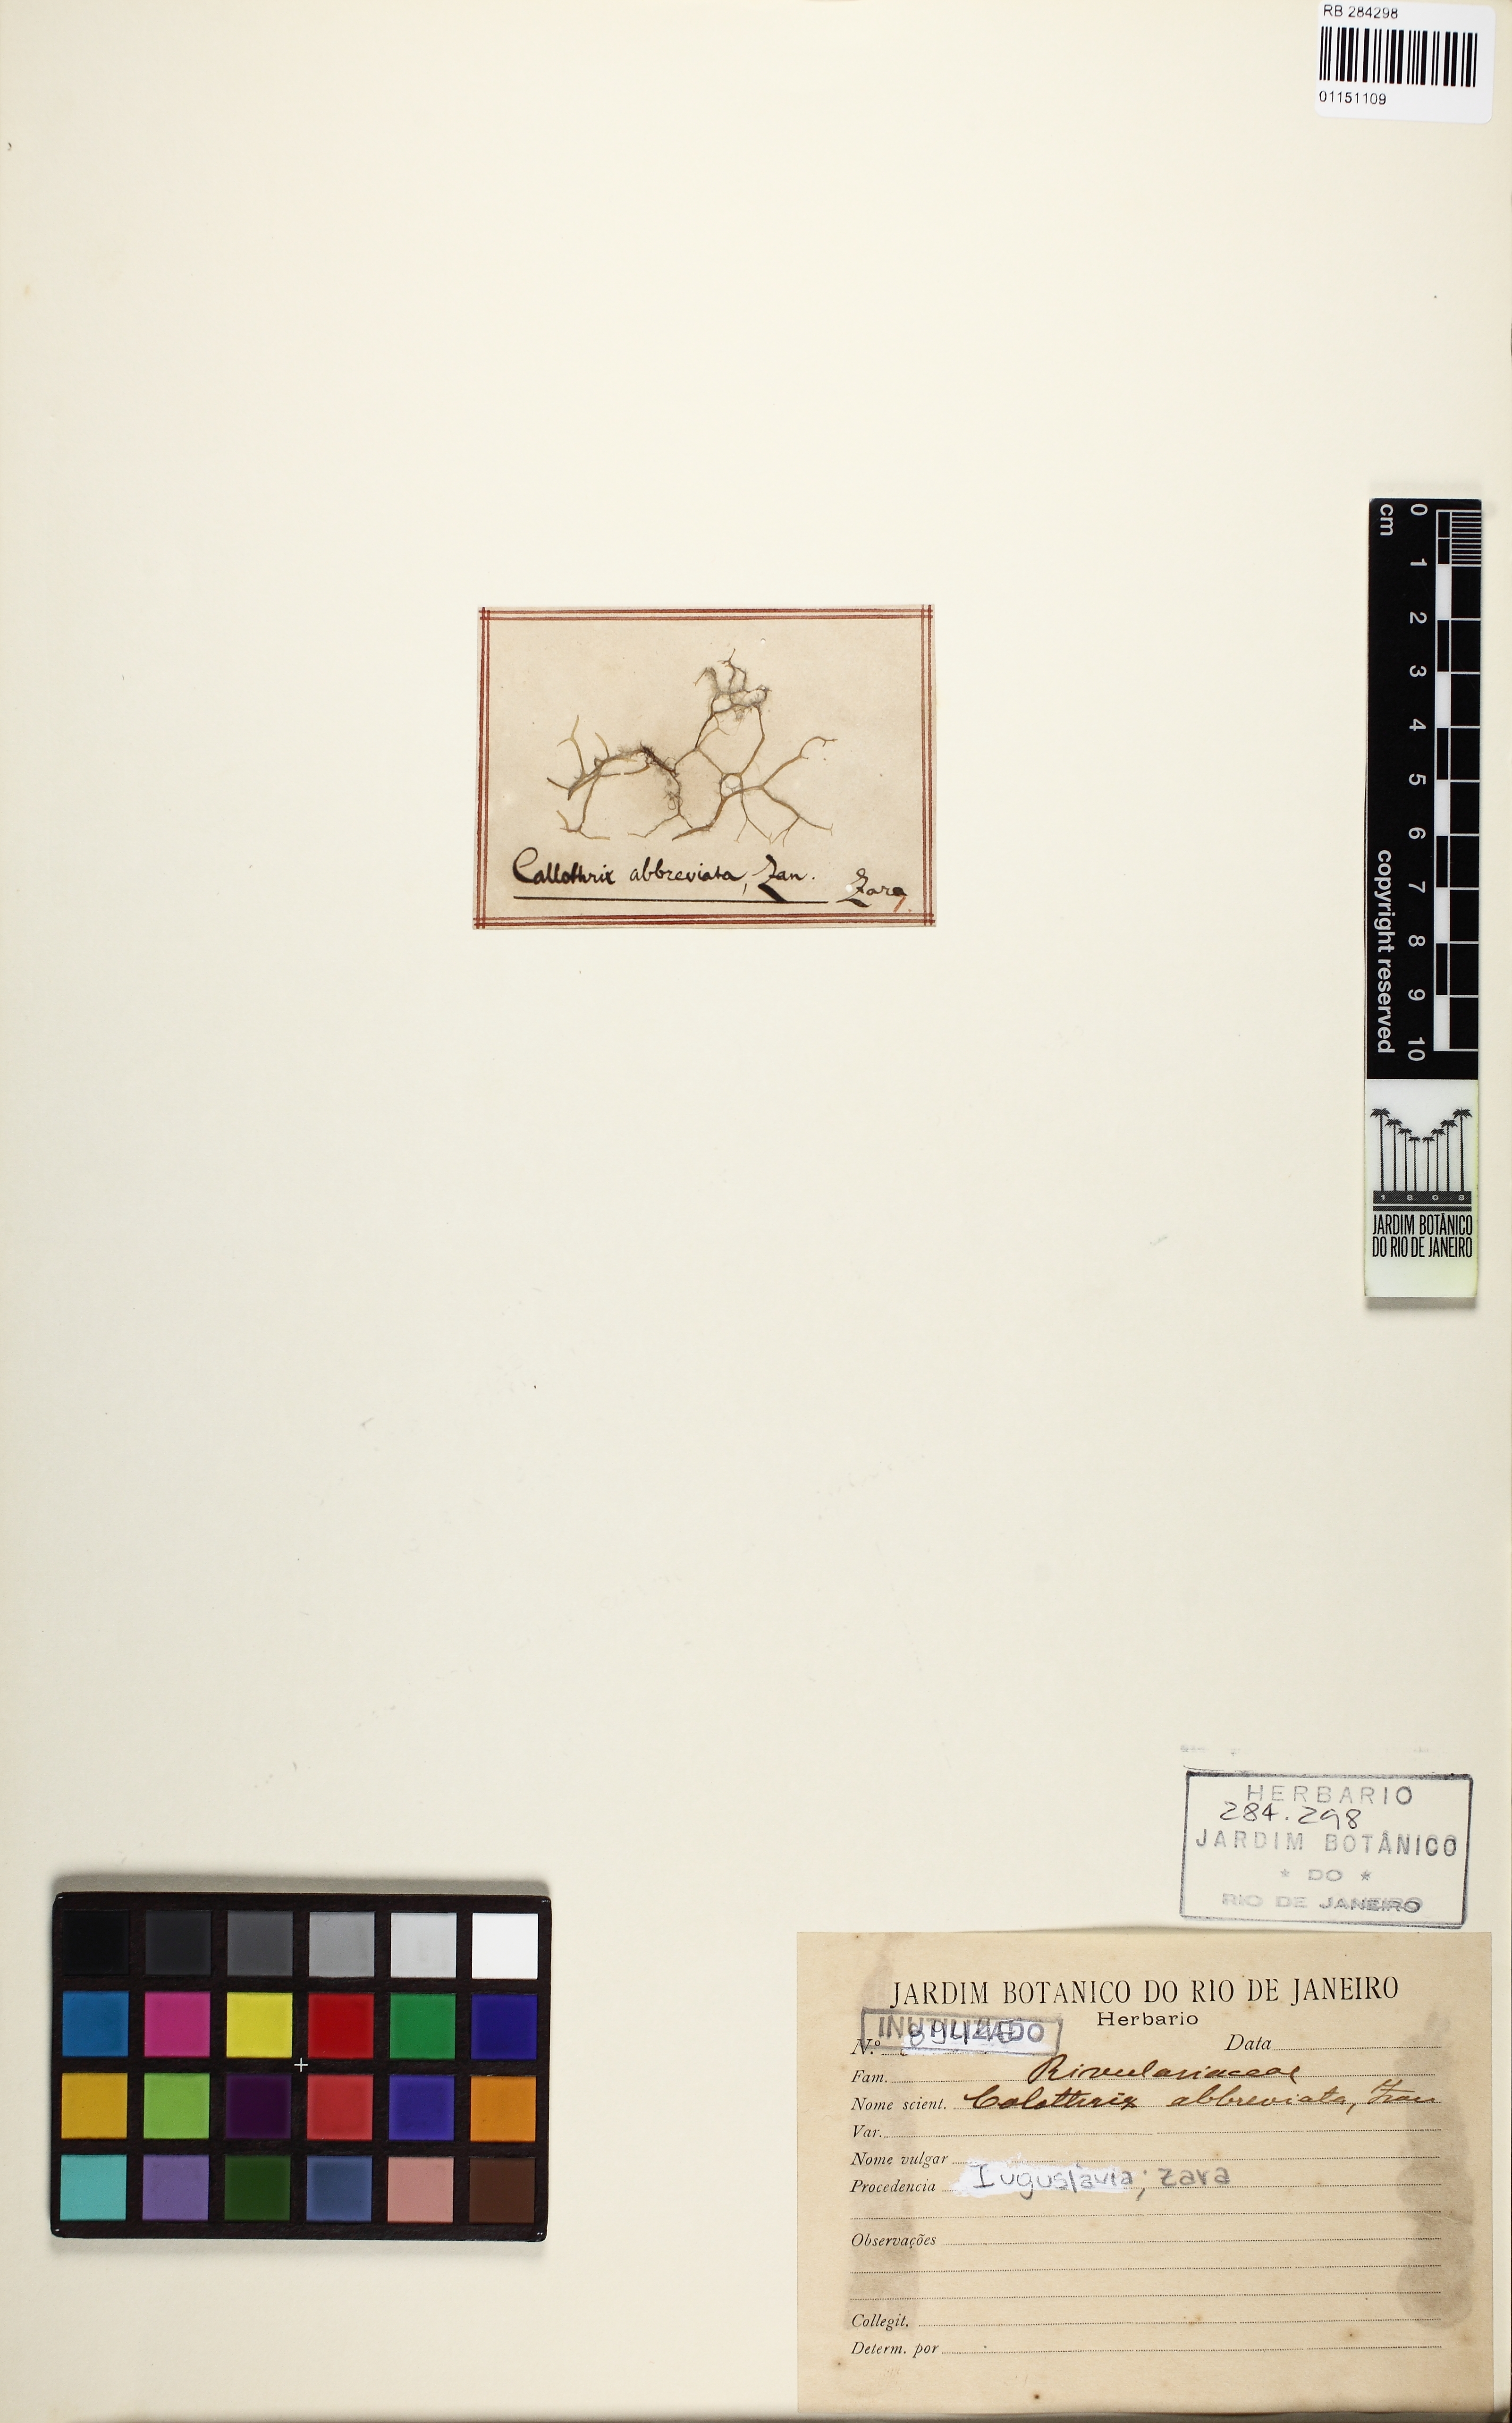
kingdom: Bacteria
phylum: Cyanobacteria
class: Cyanobacteriia
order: Cyanobacteriales
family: Rivulariaceae
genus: Calothrix
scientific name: Calothrix
